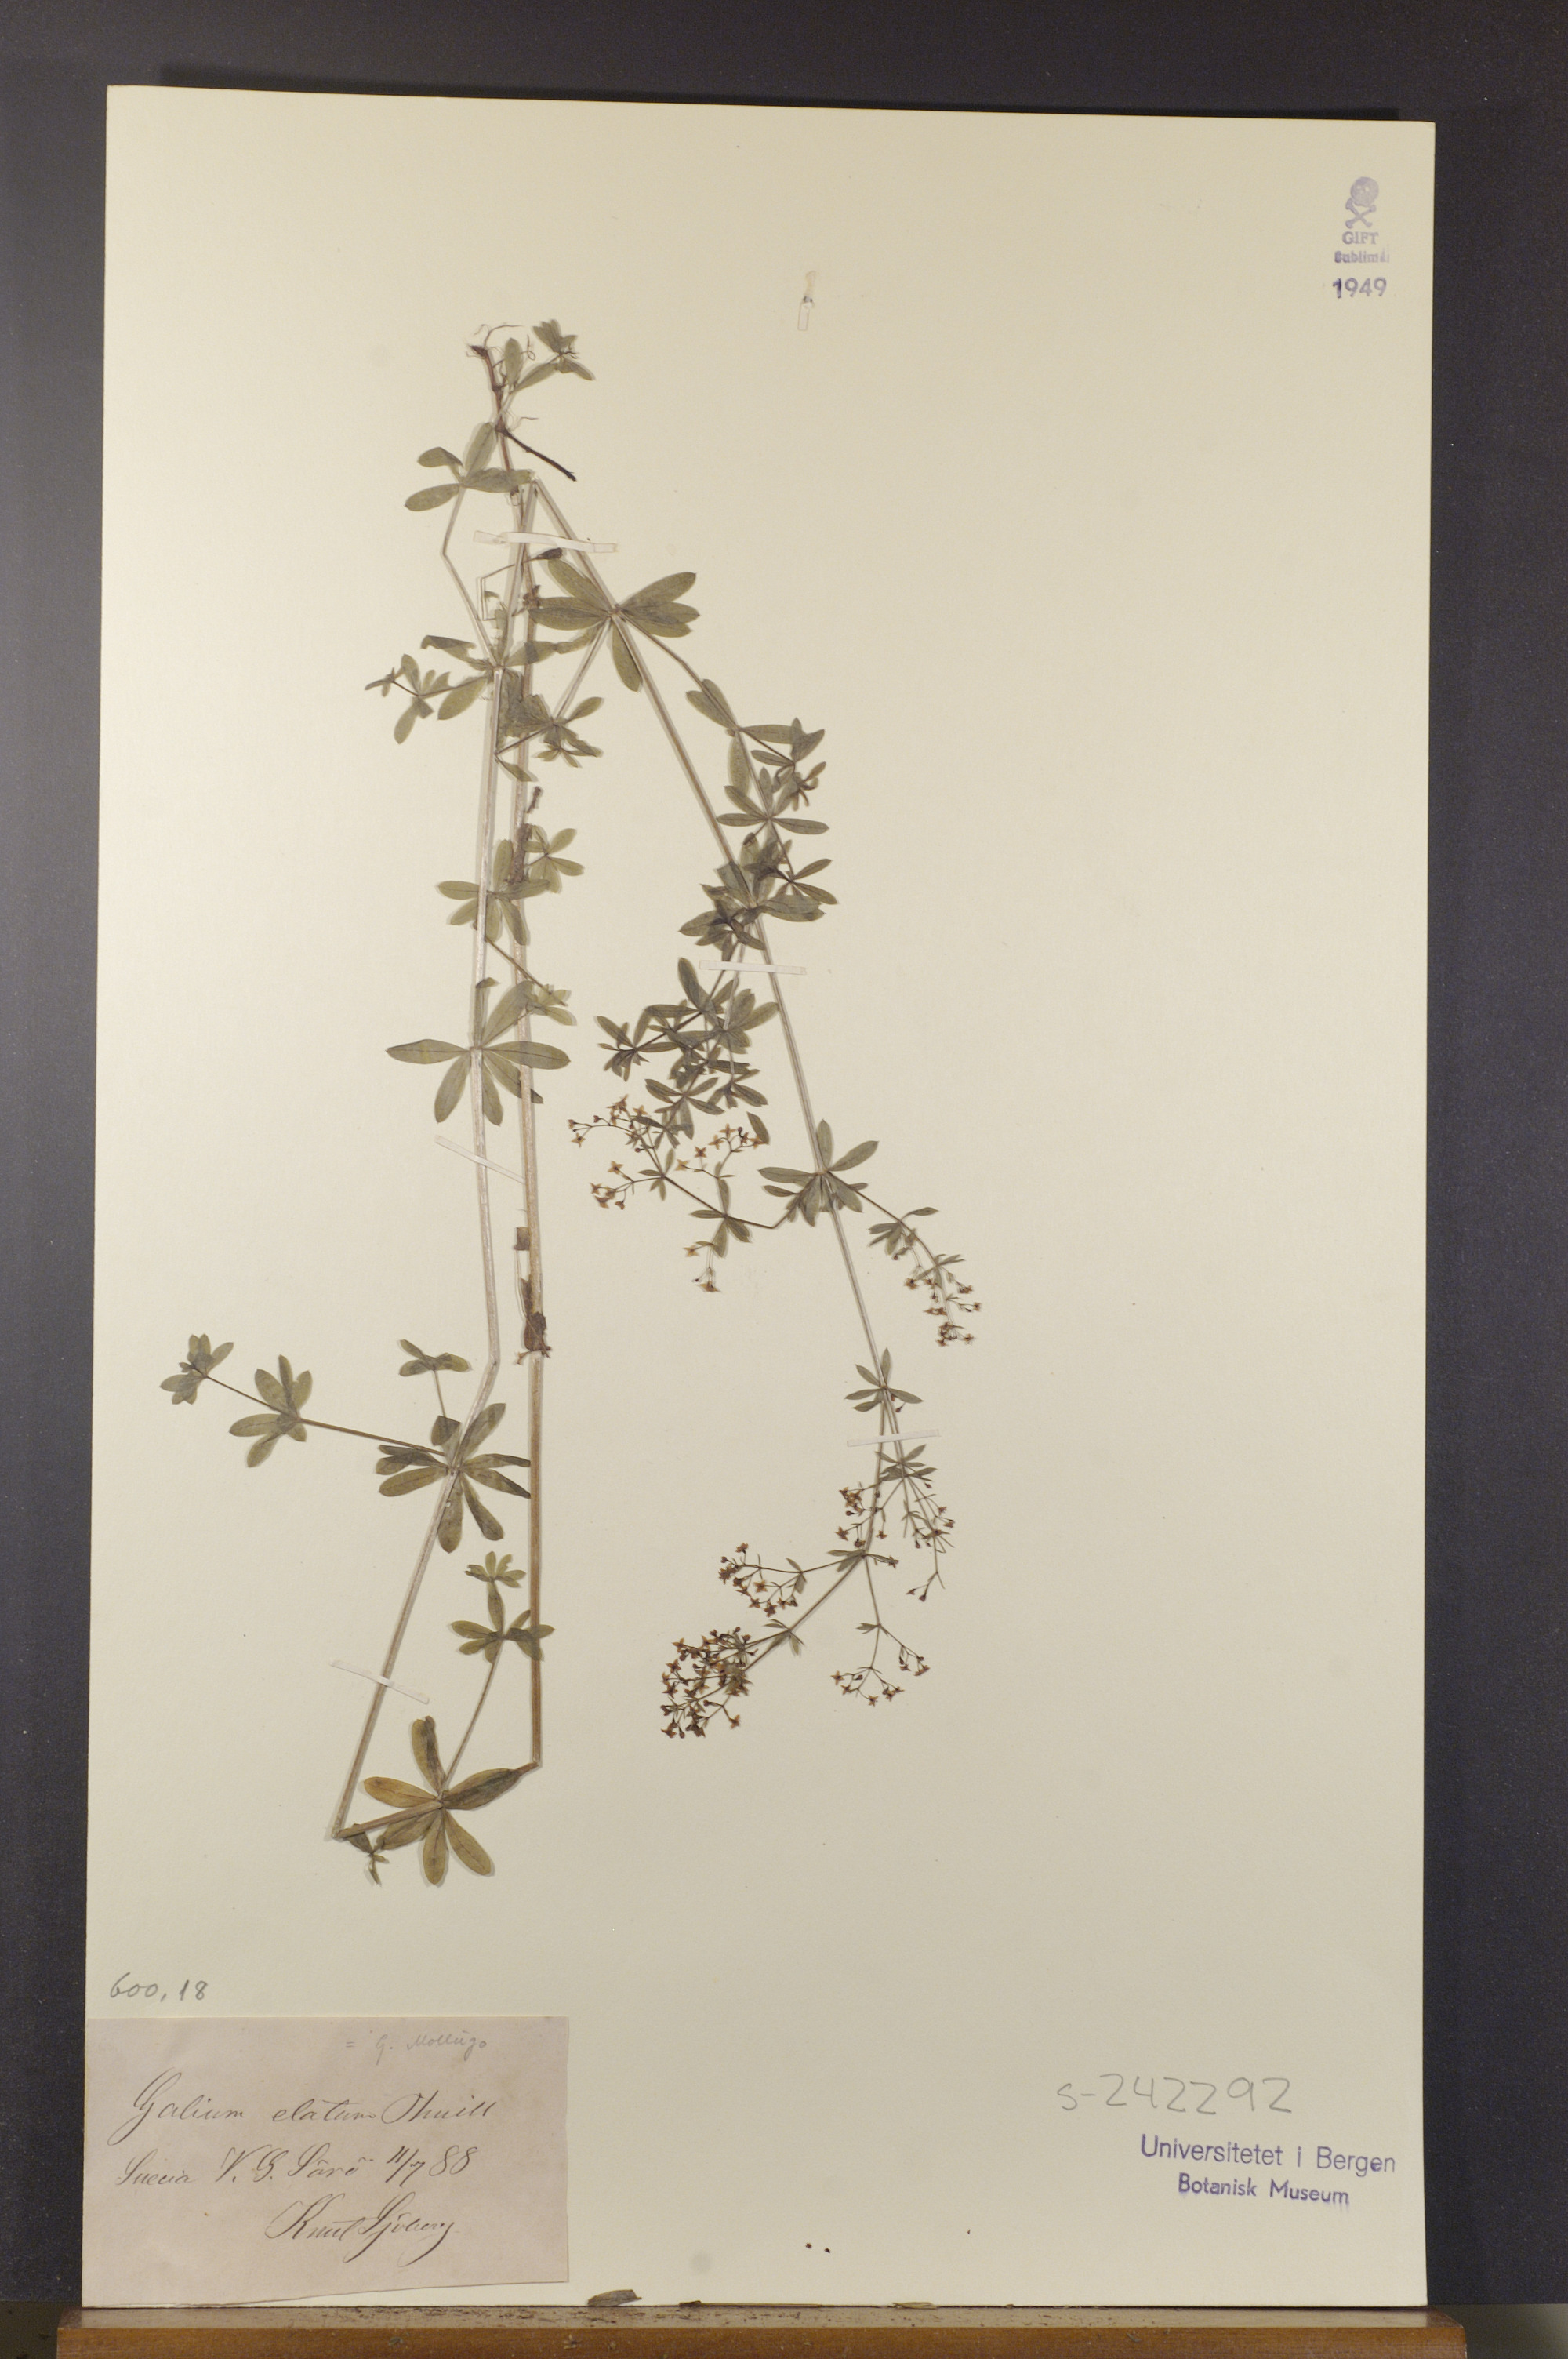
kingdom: Plantae
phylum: Tracheophyta
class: Magnoliopsida
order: Gentianales
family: Rubiaceae
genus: Galium
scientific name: Galium mollugo
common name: Hedge bedstraw
